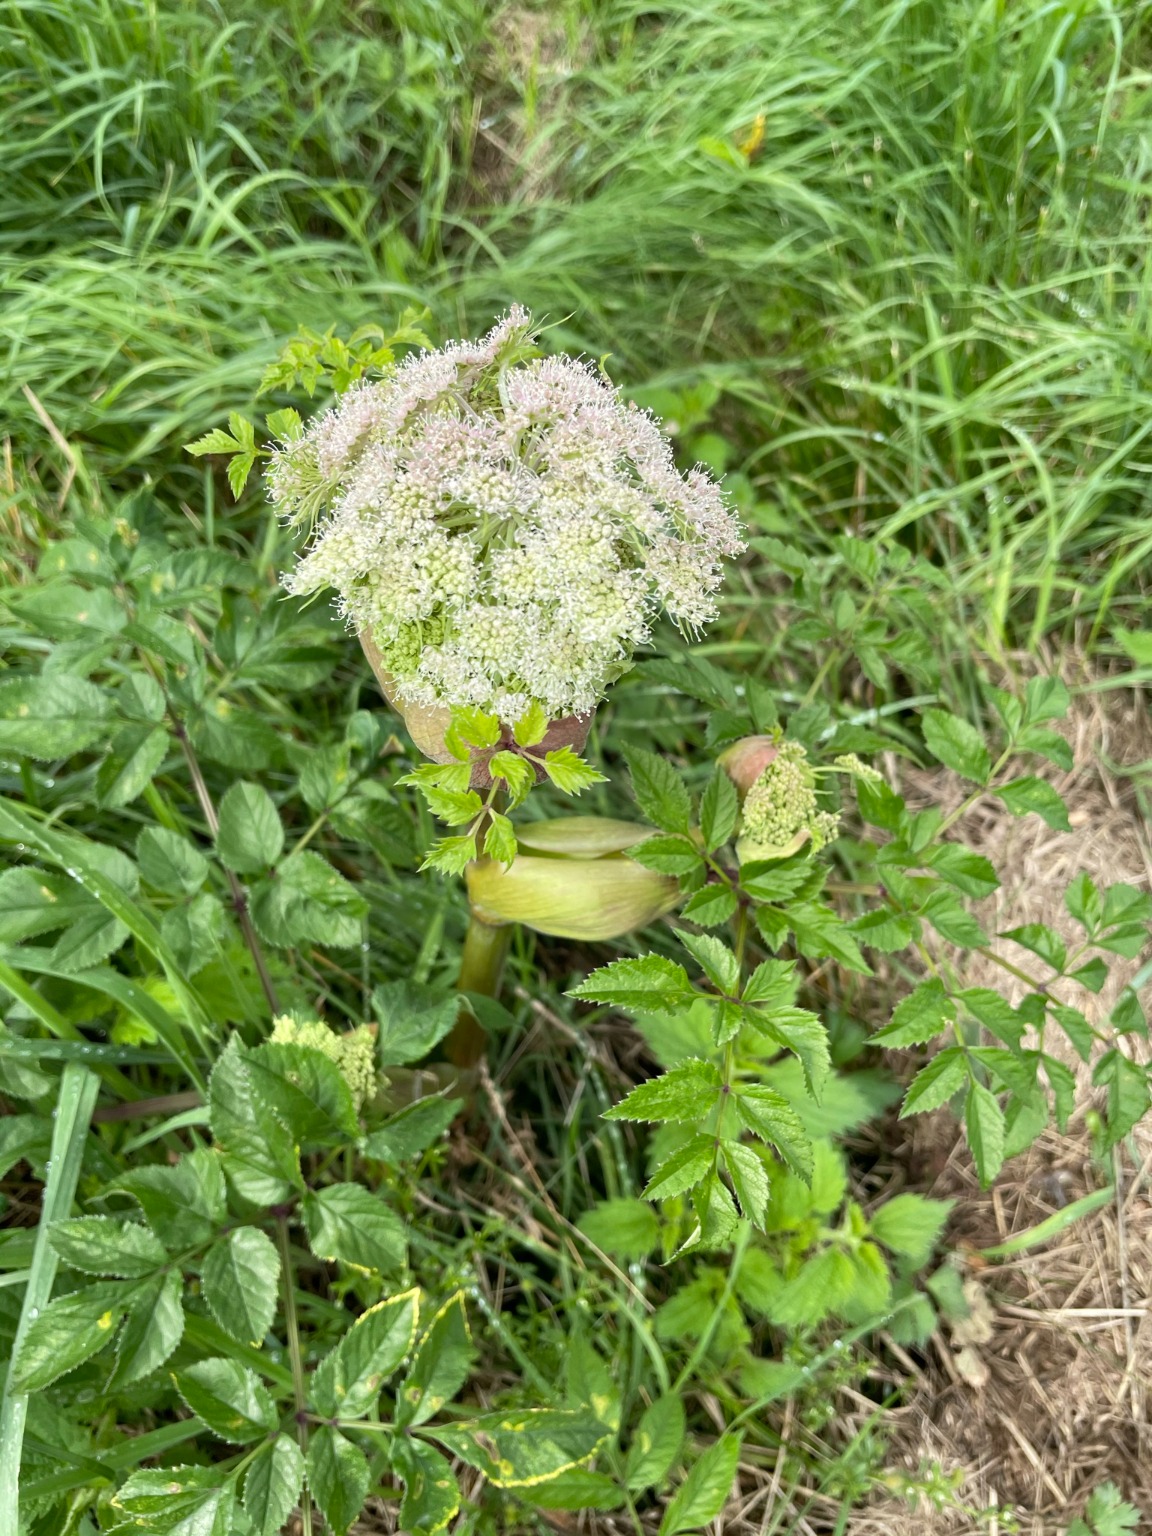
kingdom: Plantae
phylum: Tracheophyta
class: Magnoliopsida
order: Apiales
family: Apiaceae
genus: Angelica
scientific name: Angelica sylvestris
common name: Angelik
